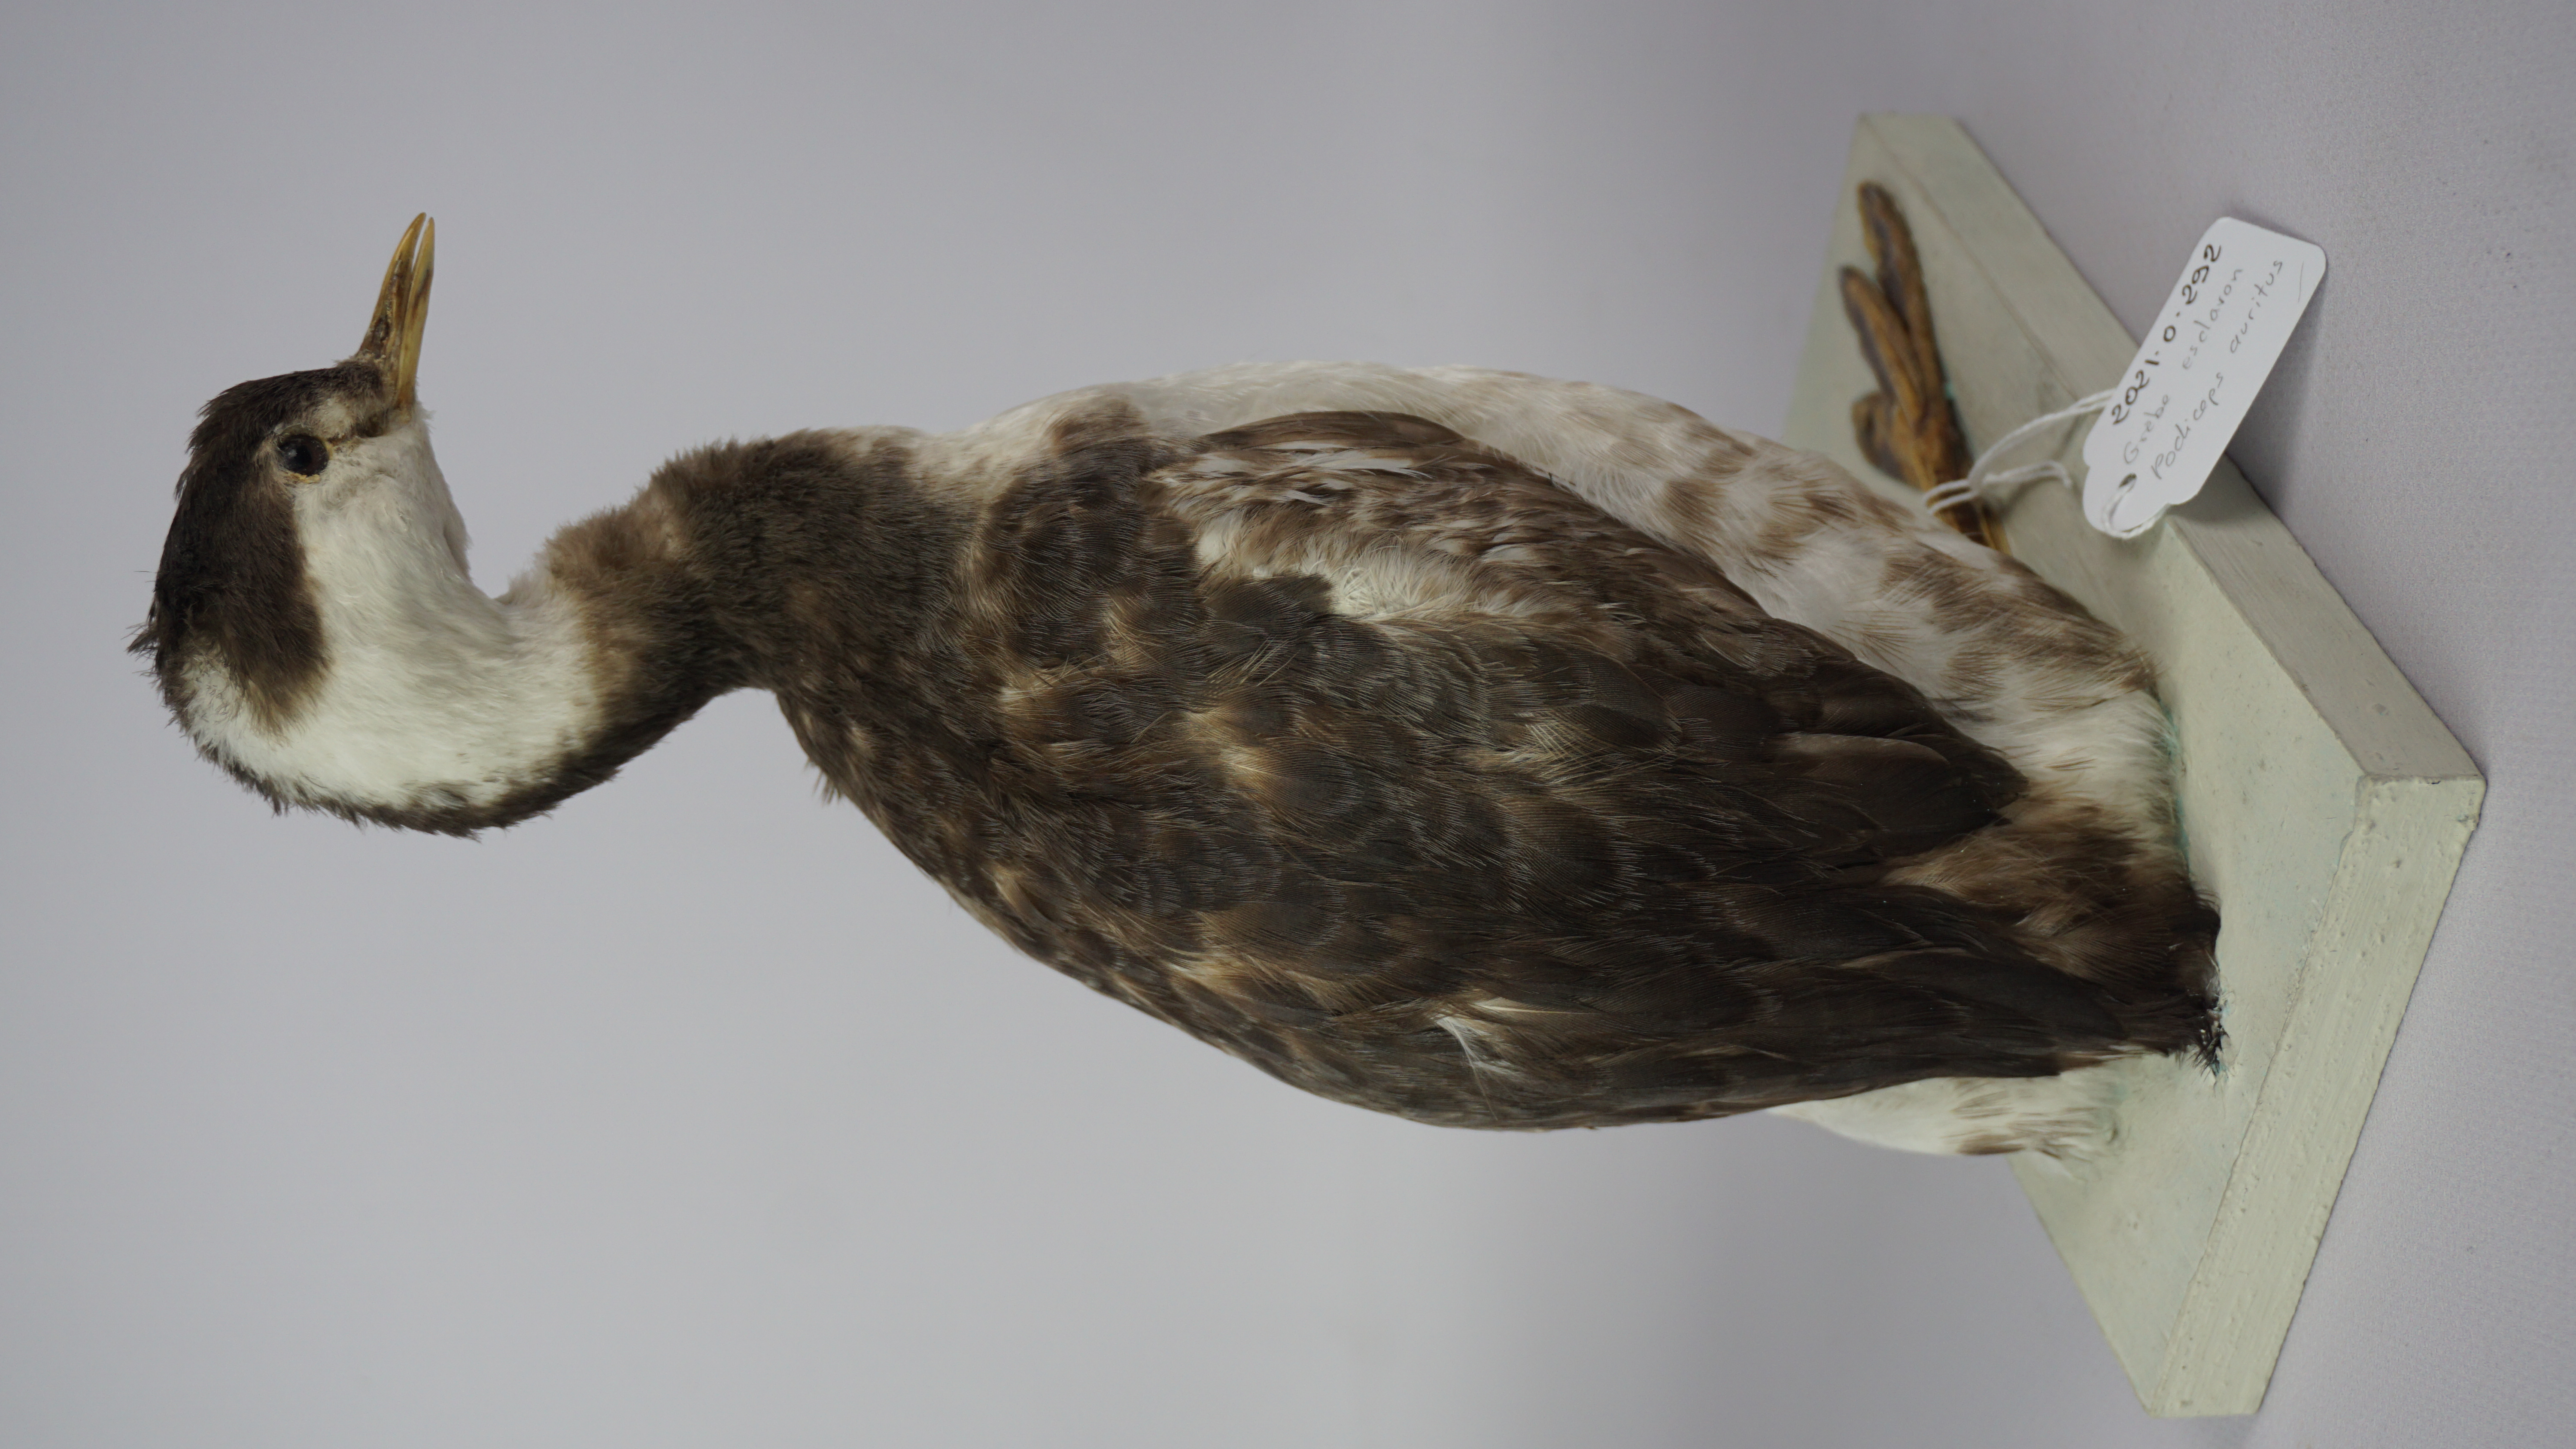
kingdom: Animalia
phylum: Chordata
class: Aves
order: Podicipediformes
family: Podicipedidae
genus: Podiceps
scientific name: Podiceps auritus
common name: Horned grebe
